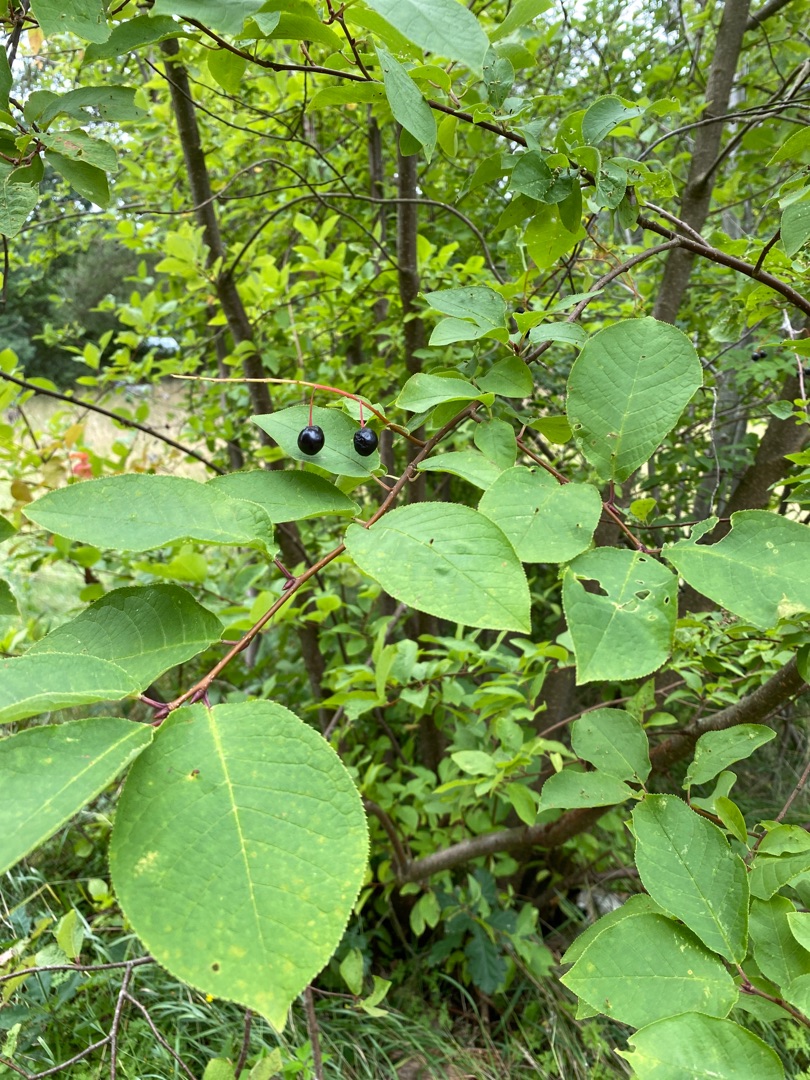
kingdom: Plantae
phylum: Tracheophyta
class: Magnoliopsida
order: Rosales
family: Rosaceae
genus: Prunus
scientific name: Prunus padus
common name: Almindelig hæg
